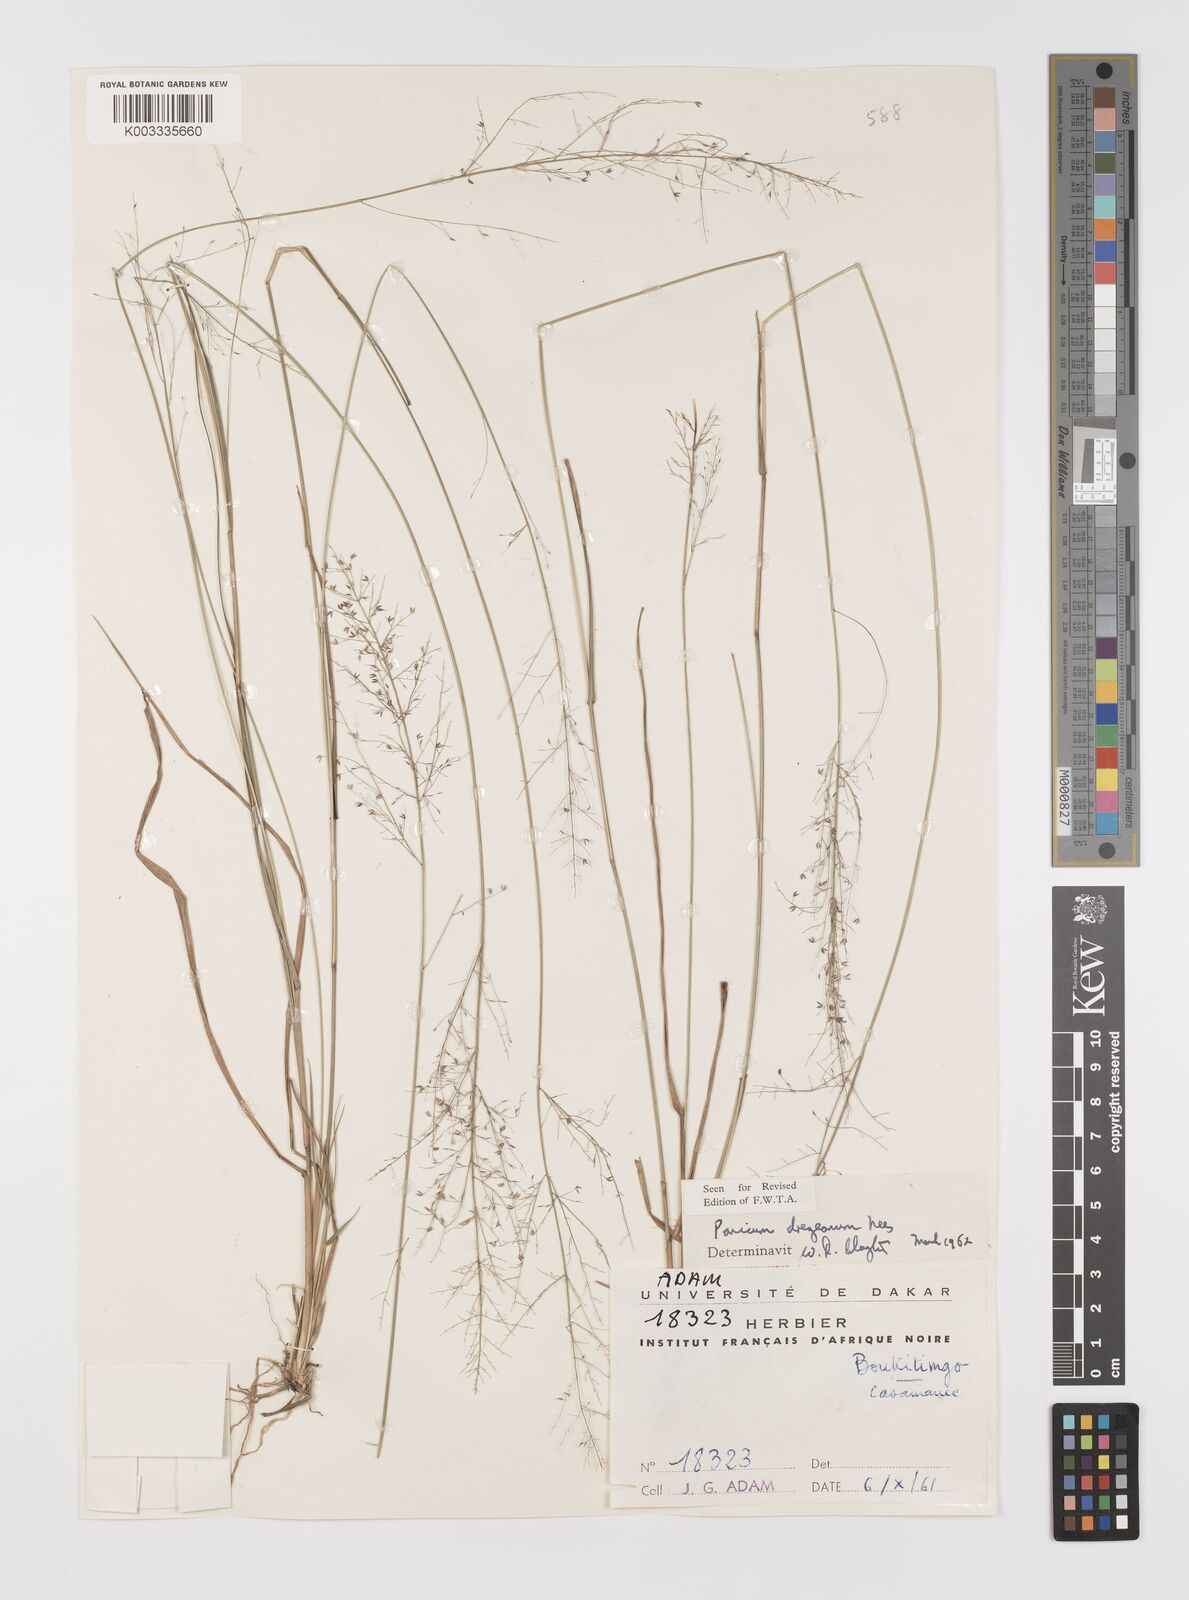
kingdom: Plantae
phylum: Tracheophyta
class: Liliopsida
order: Poales
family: Poaceae
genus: Panicum
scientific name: Panicum dregeanum
